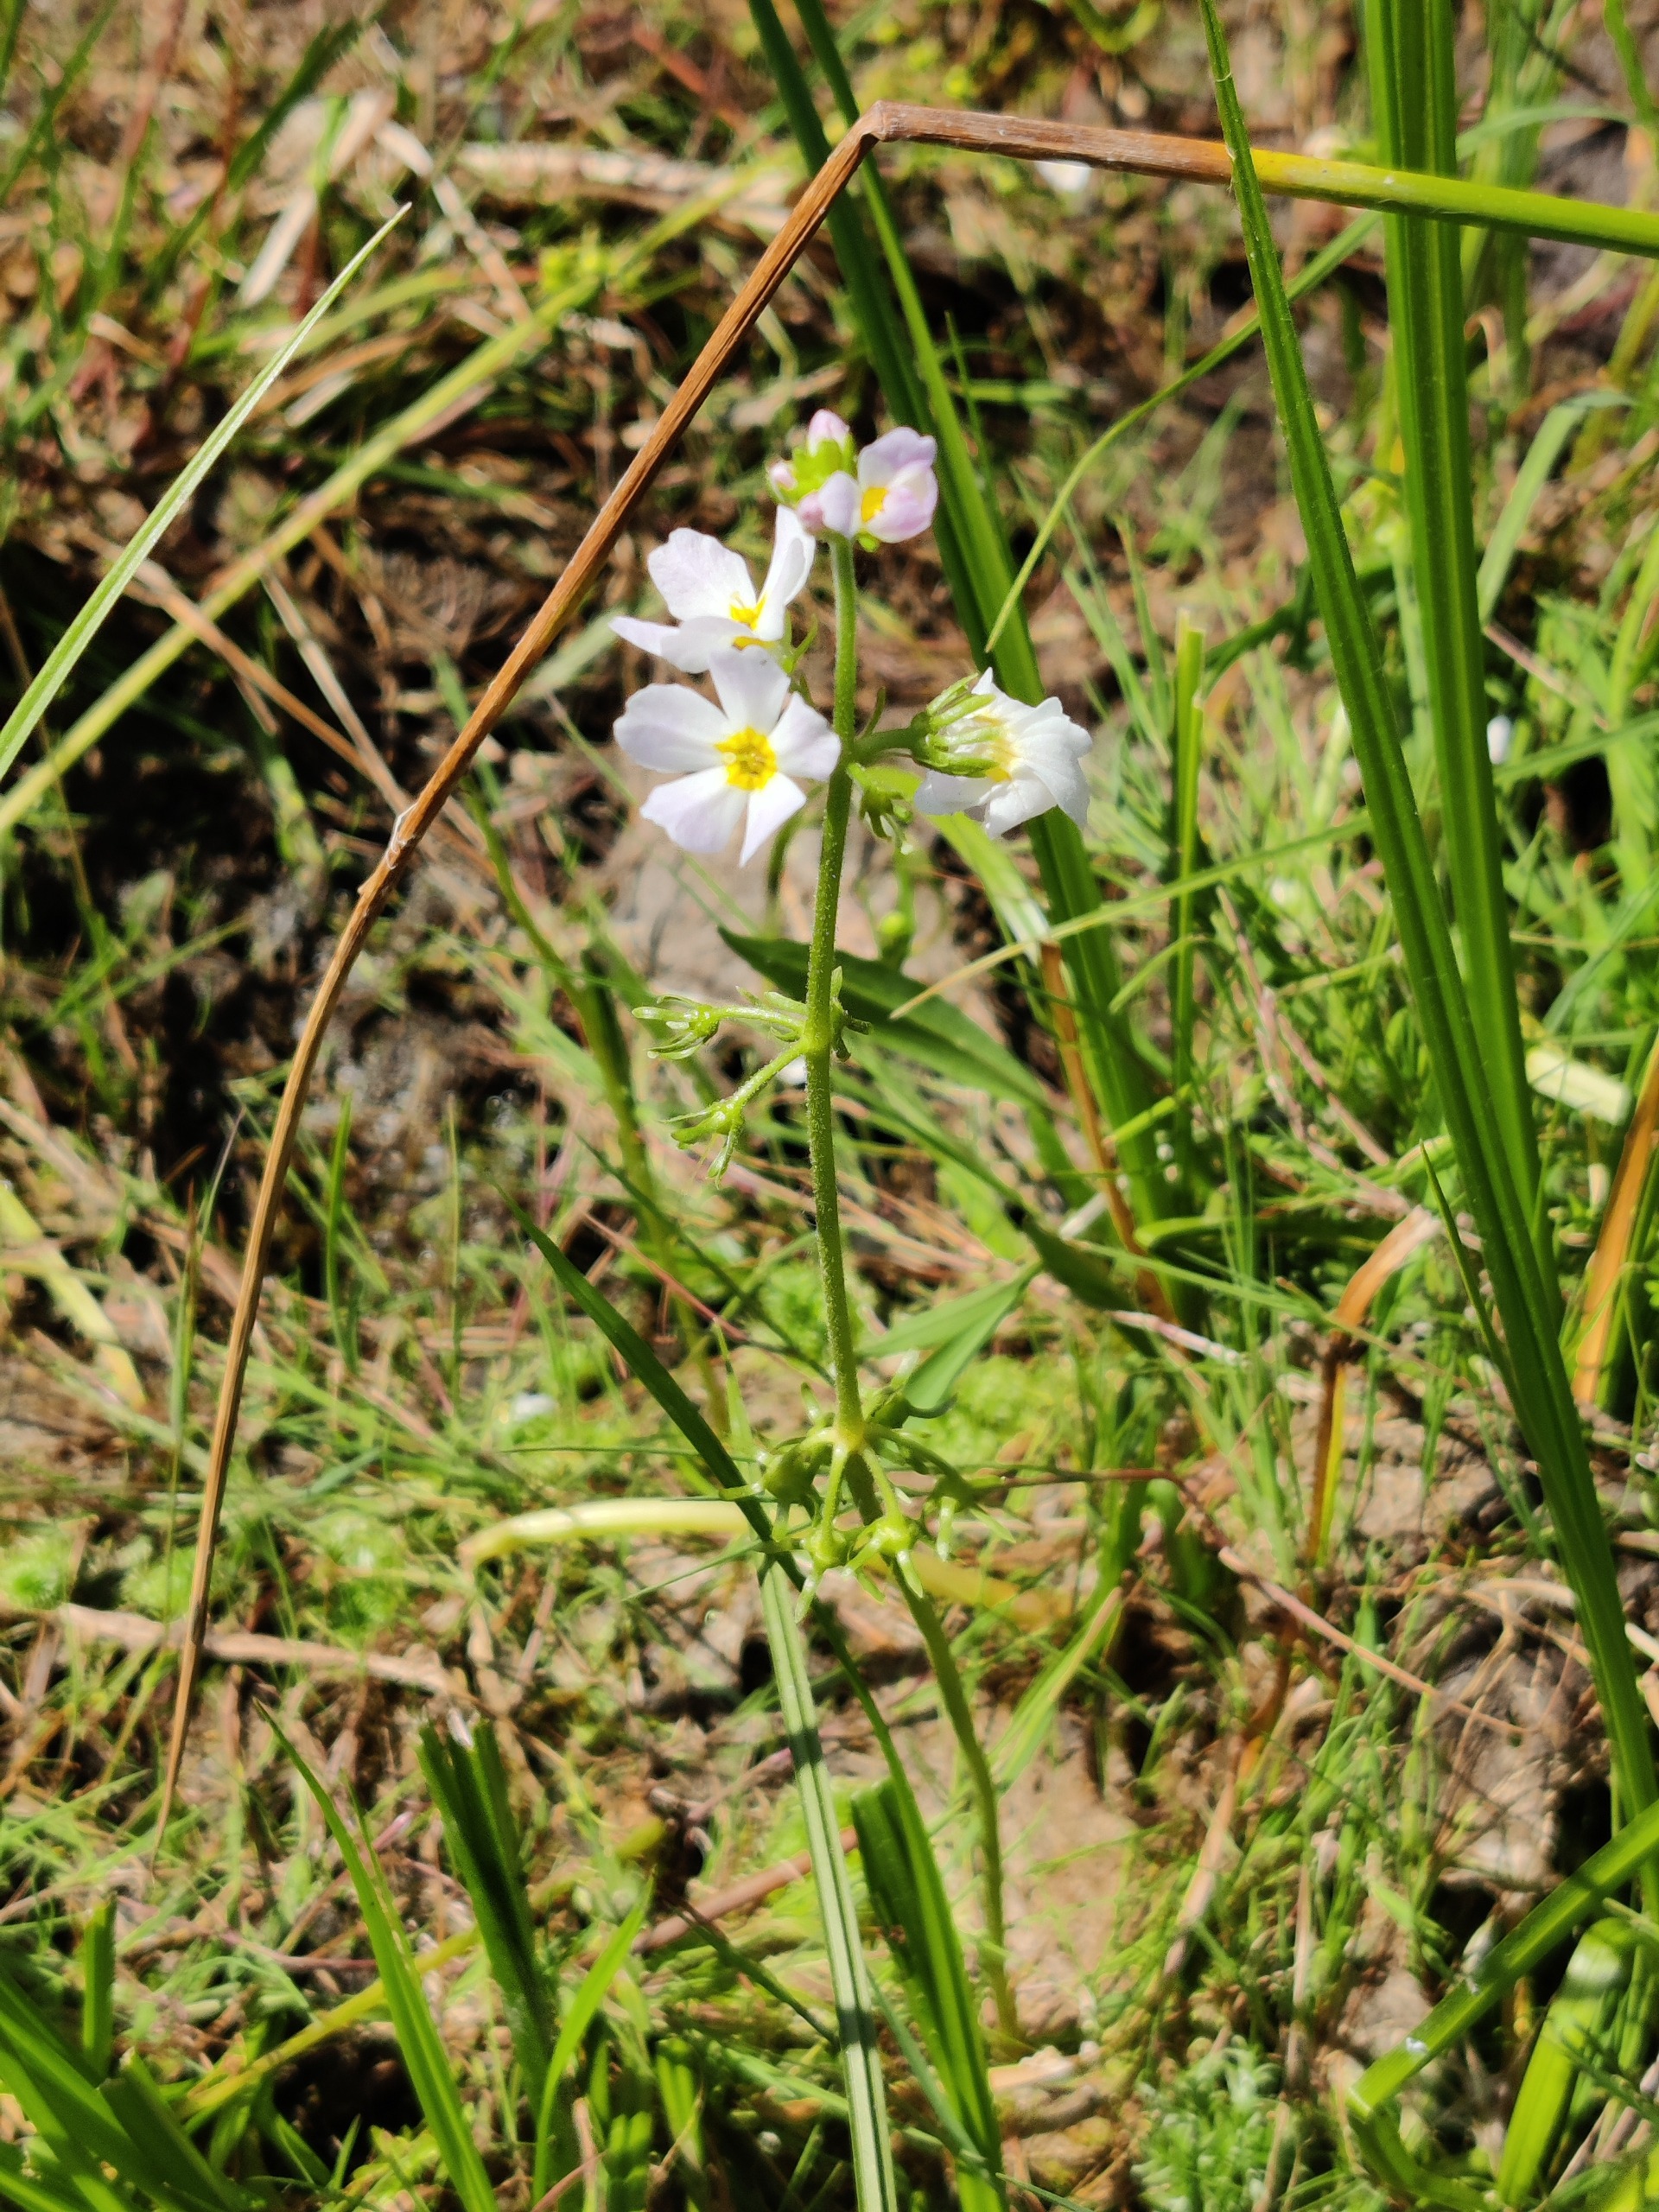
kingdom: Plantae
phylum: Tracheophyta
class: Magnoliopsida
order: Ericales
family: Primulaceae
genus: Hottonia
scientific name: Hottonia palustris
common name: Vandrøllike
